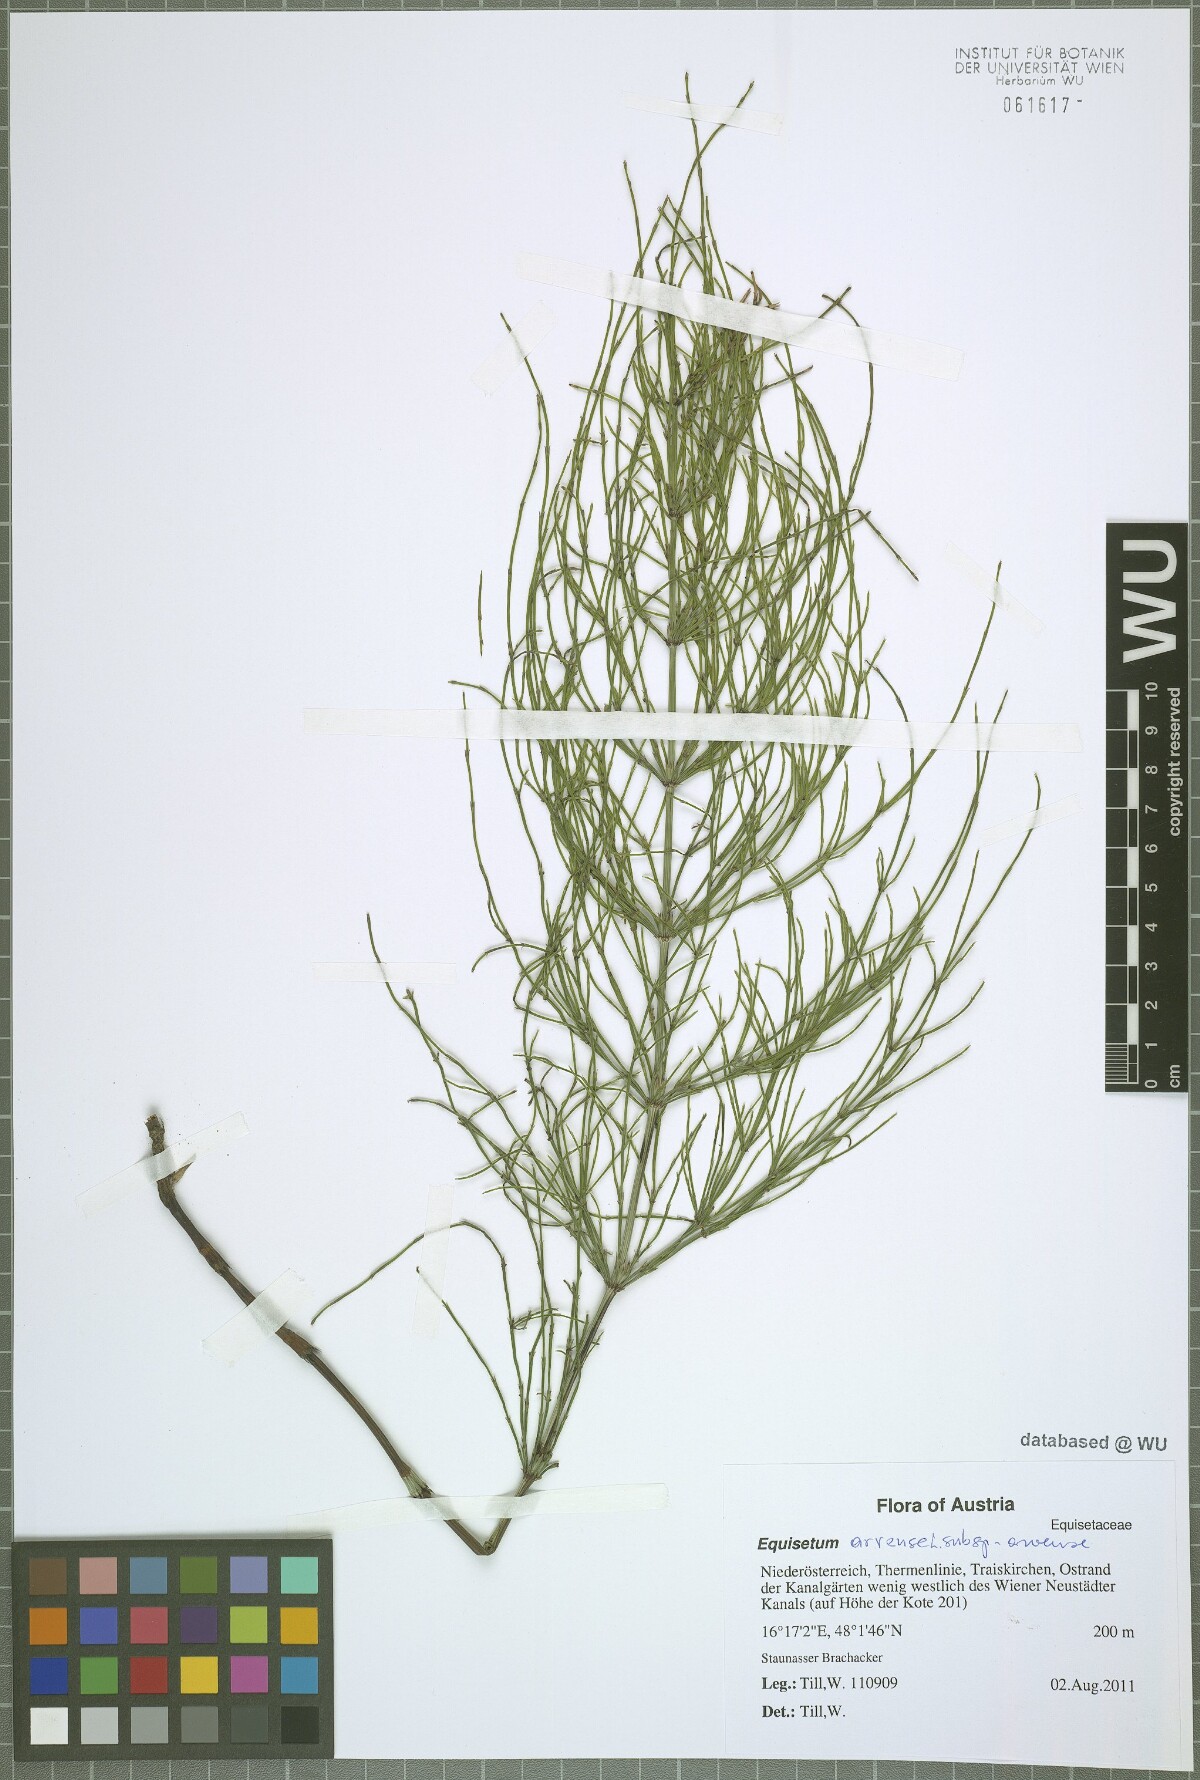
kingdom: Plantae
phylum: Tracheophyta
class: Polypodiopsida
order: Equisetales
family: Equisetaceae
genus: Equisetum
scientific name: Equisetum arvense
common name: Field horsetail
